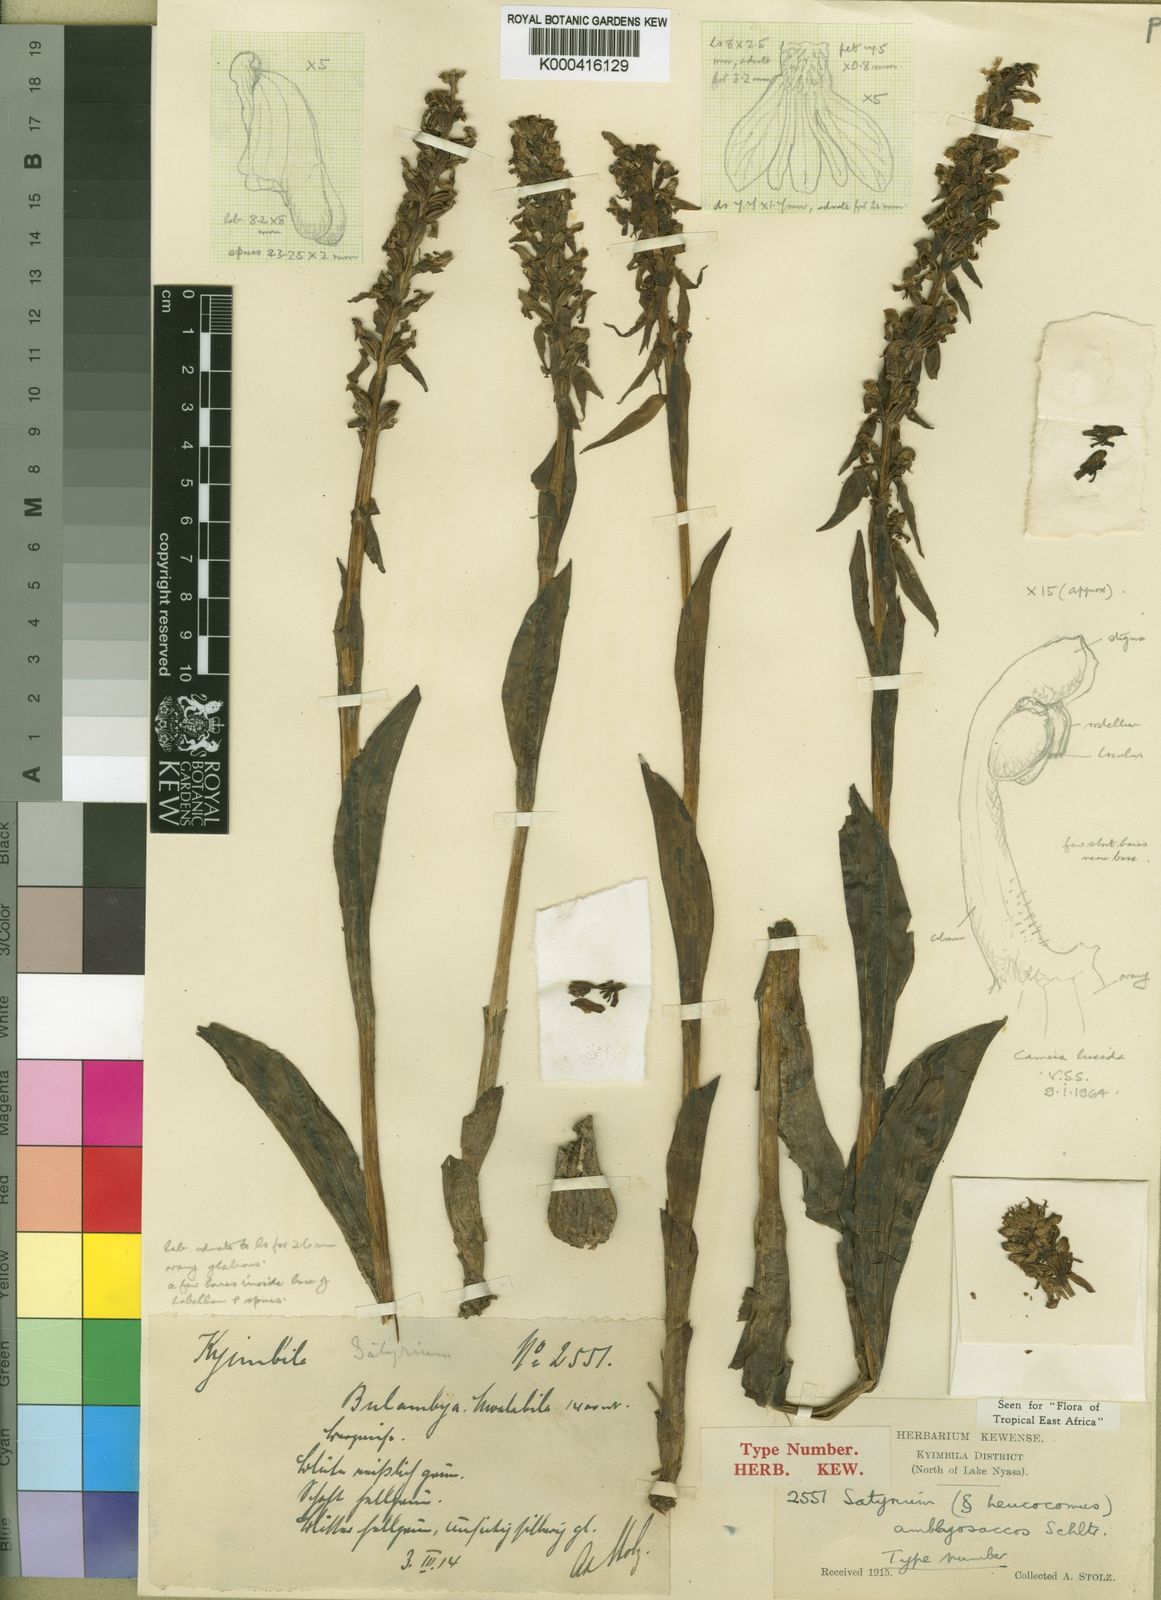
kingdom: Plantae
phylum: Tracheophyta
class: Liliopsida
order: Asparagales
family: Orchidaceae
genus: Satyrium
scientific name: Satyrium amblyosaccos
